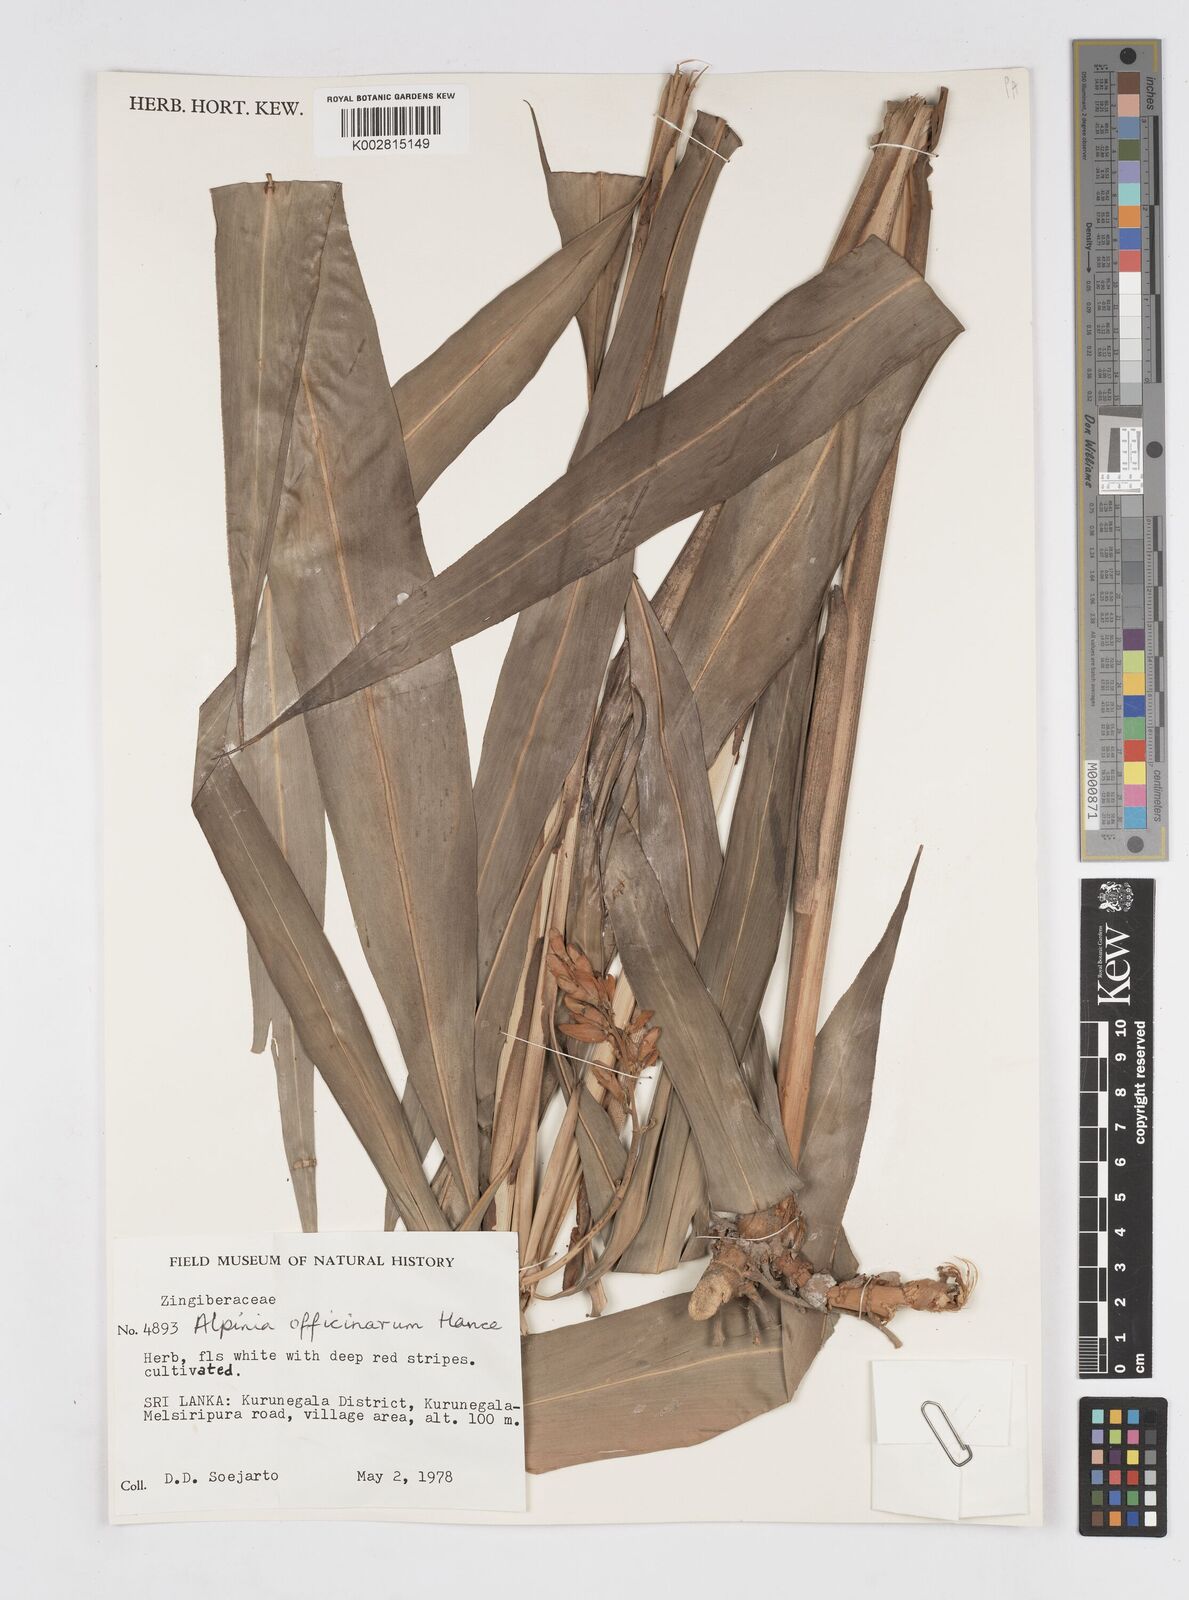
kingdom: Plantae
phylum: Tracheophyta
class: Liliopsida
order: Zingiberales
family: Zingiberaceae
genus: Alpinia
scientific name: Alpinia officinarum
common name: Chinese-ginger
